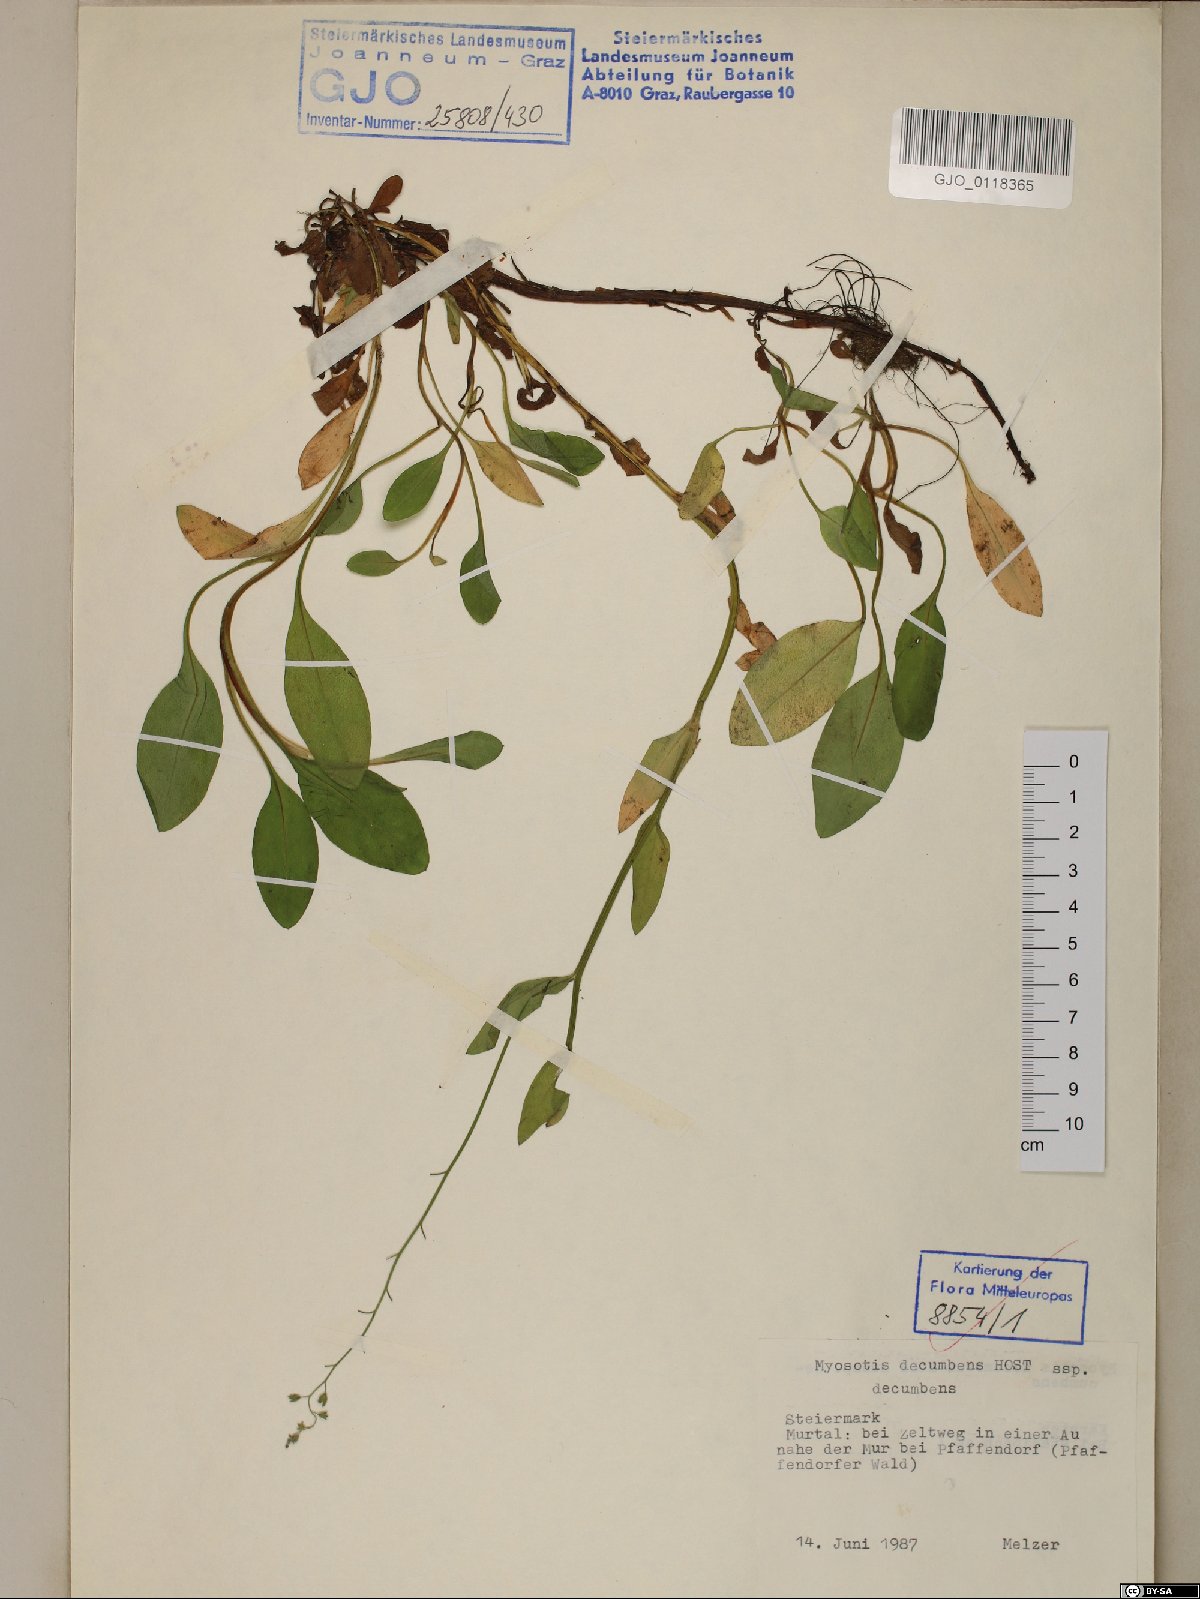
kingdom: Plantae
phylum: Tracheophyta
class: Magnoliopsida
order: Boraginales
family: Boraginaceae
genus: Myosotis
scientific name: Myosotis decumbens
